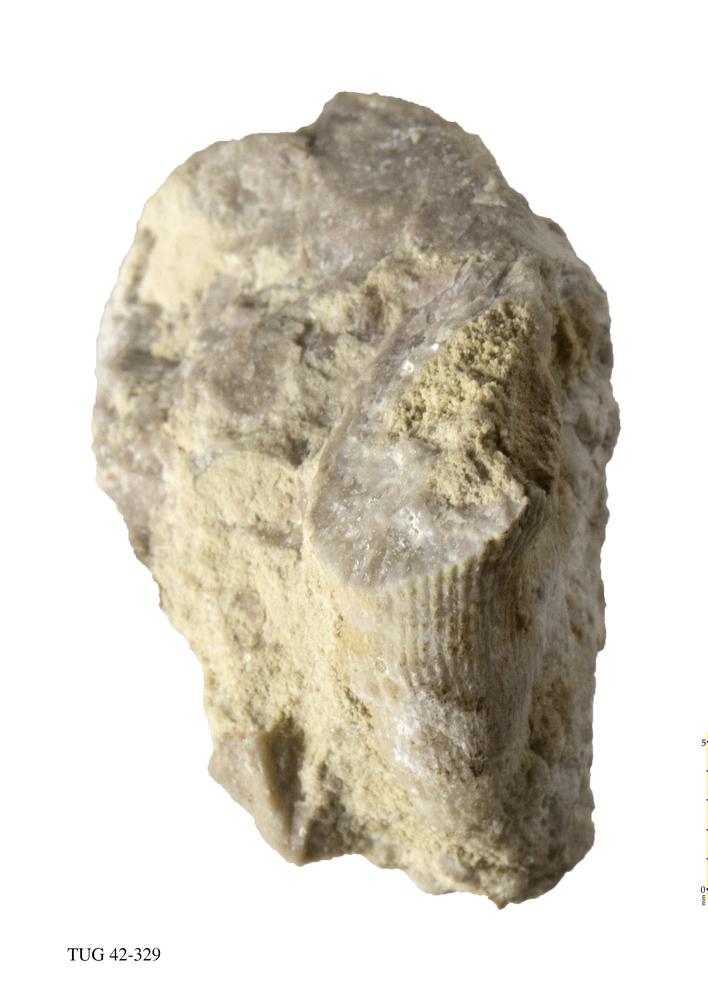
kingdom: Animalia
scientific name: Animalia
